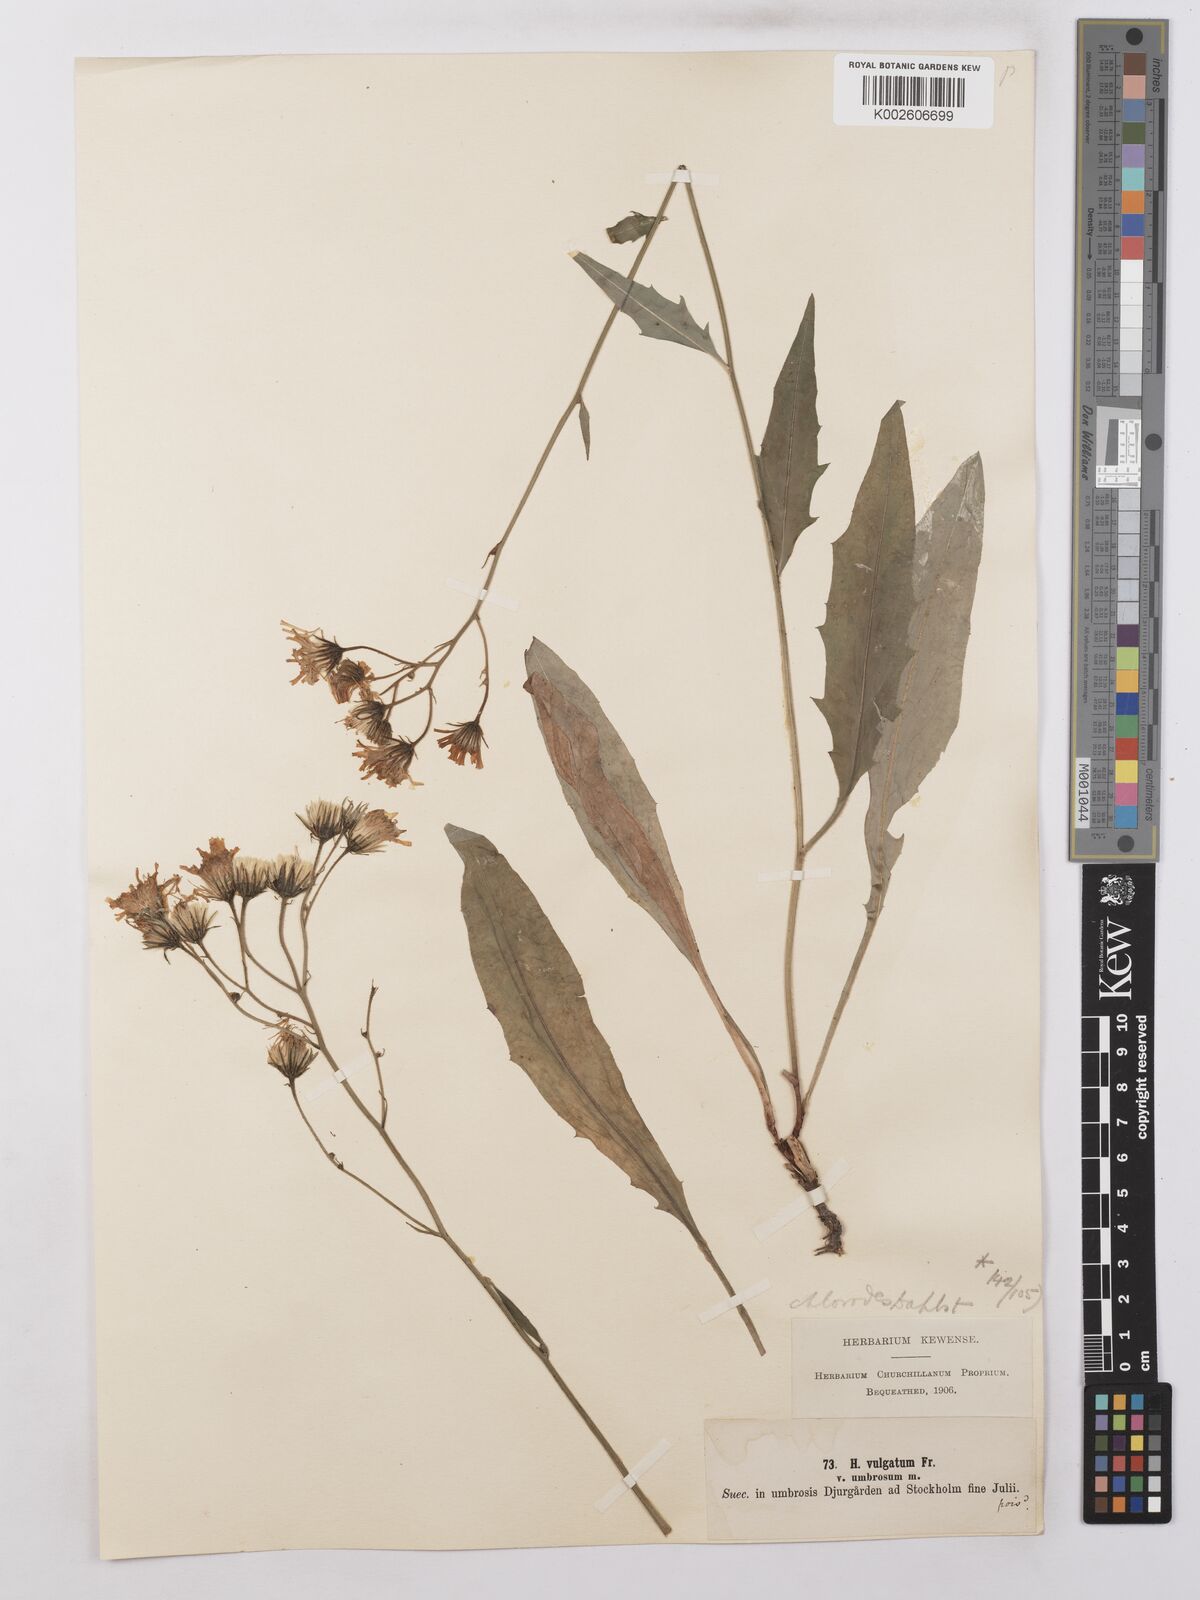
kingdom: Plantae
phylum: Tracheophyta
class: Magnoliopsida
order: Asterales
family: Asteraceae
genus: Hieracium
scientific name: Hieracium lachenalii
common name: Common hawkweed
